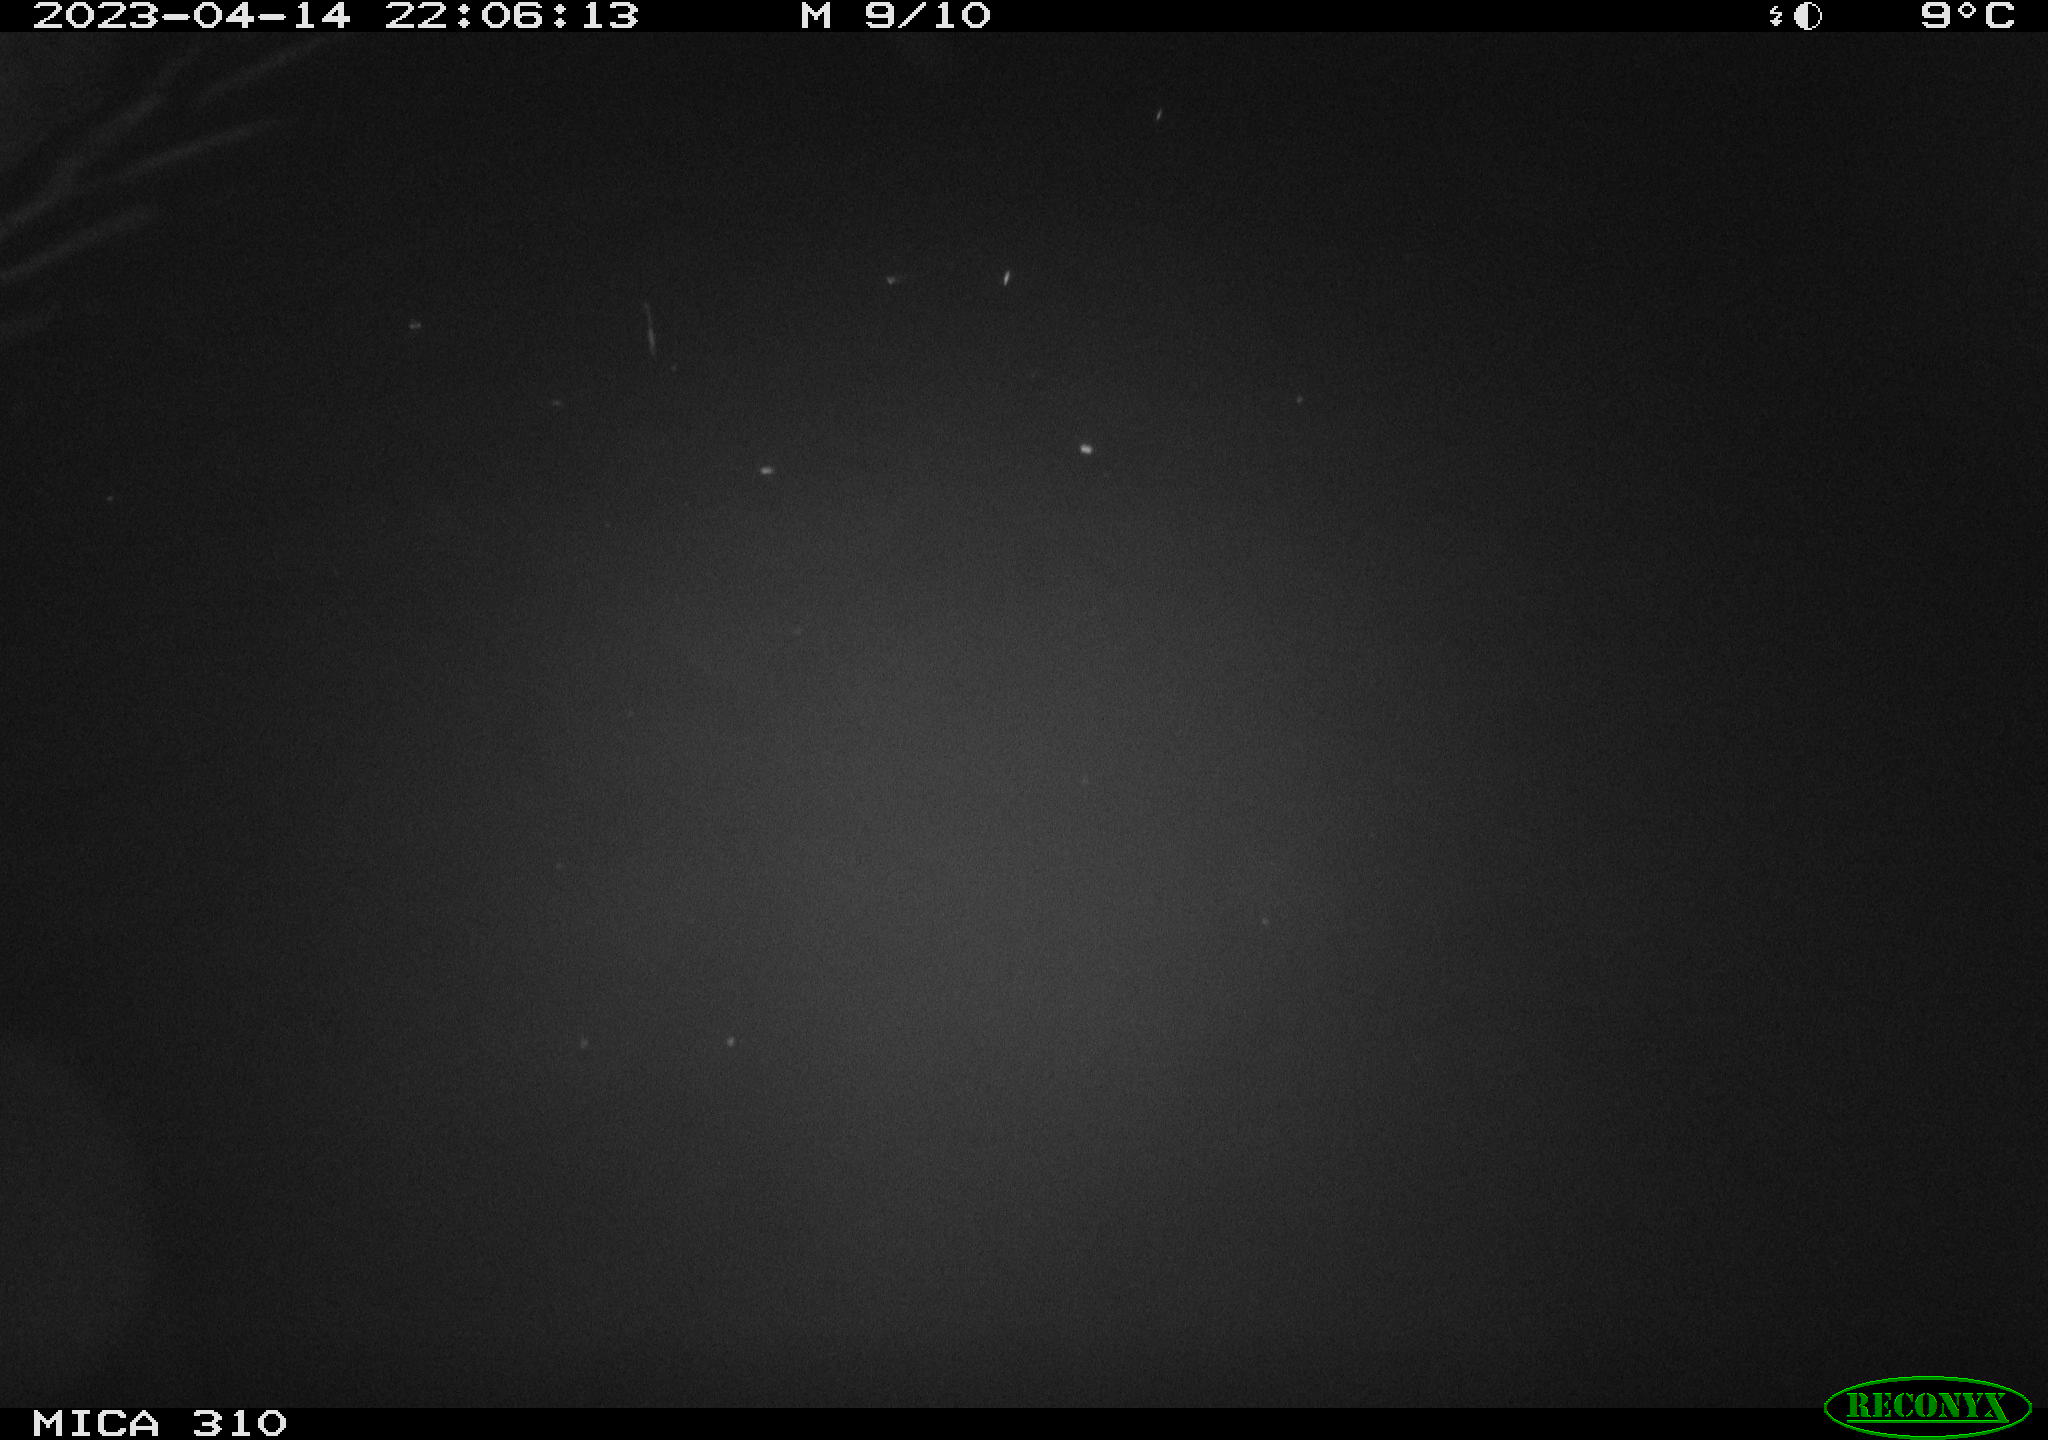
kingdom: Animalia
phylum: Chordata
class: Mammalia
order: Rodentia
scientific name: Rodentia
